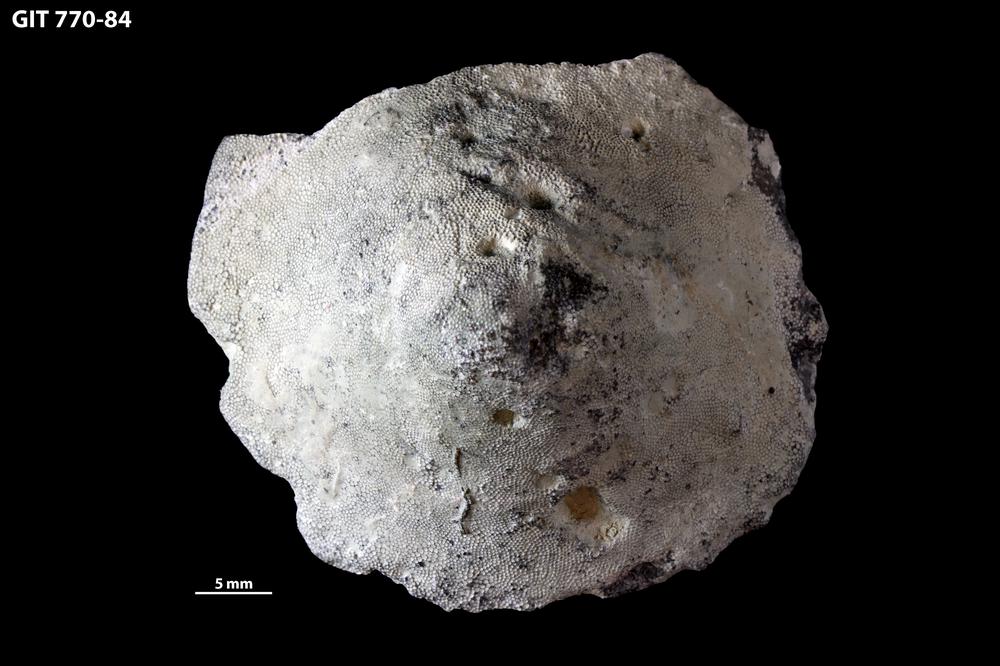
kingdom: Animalia
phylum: Bryozoa
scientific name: Bryozoa
